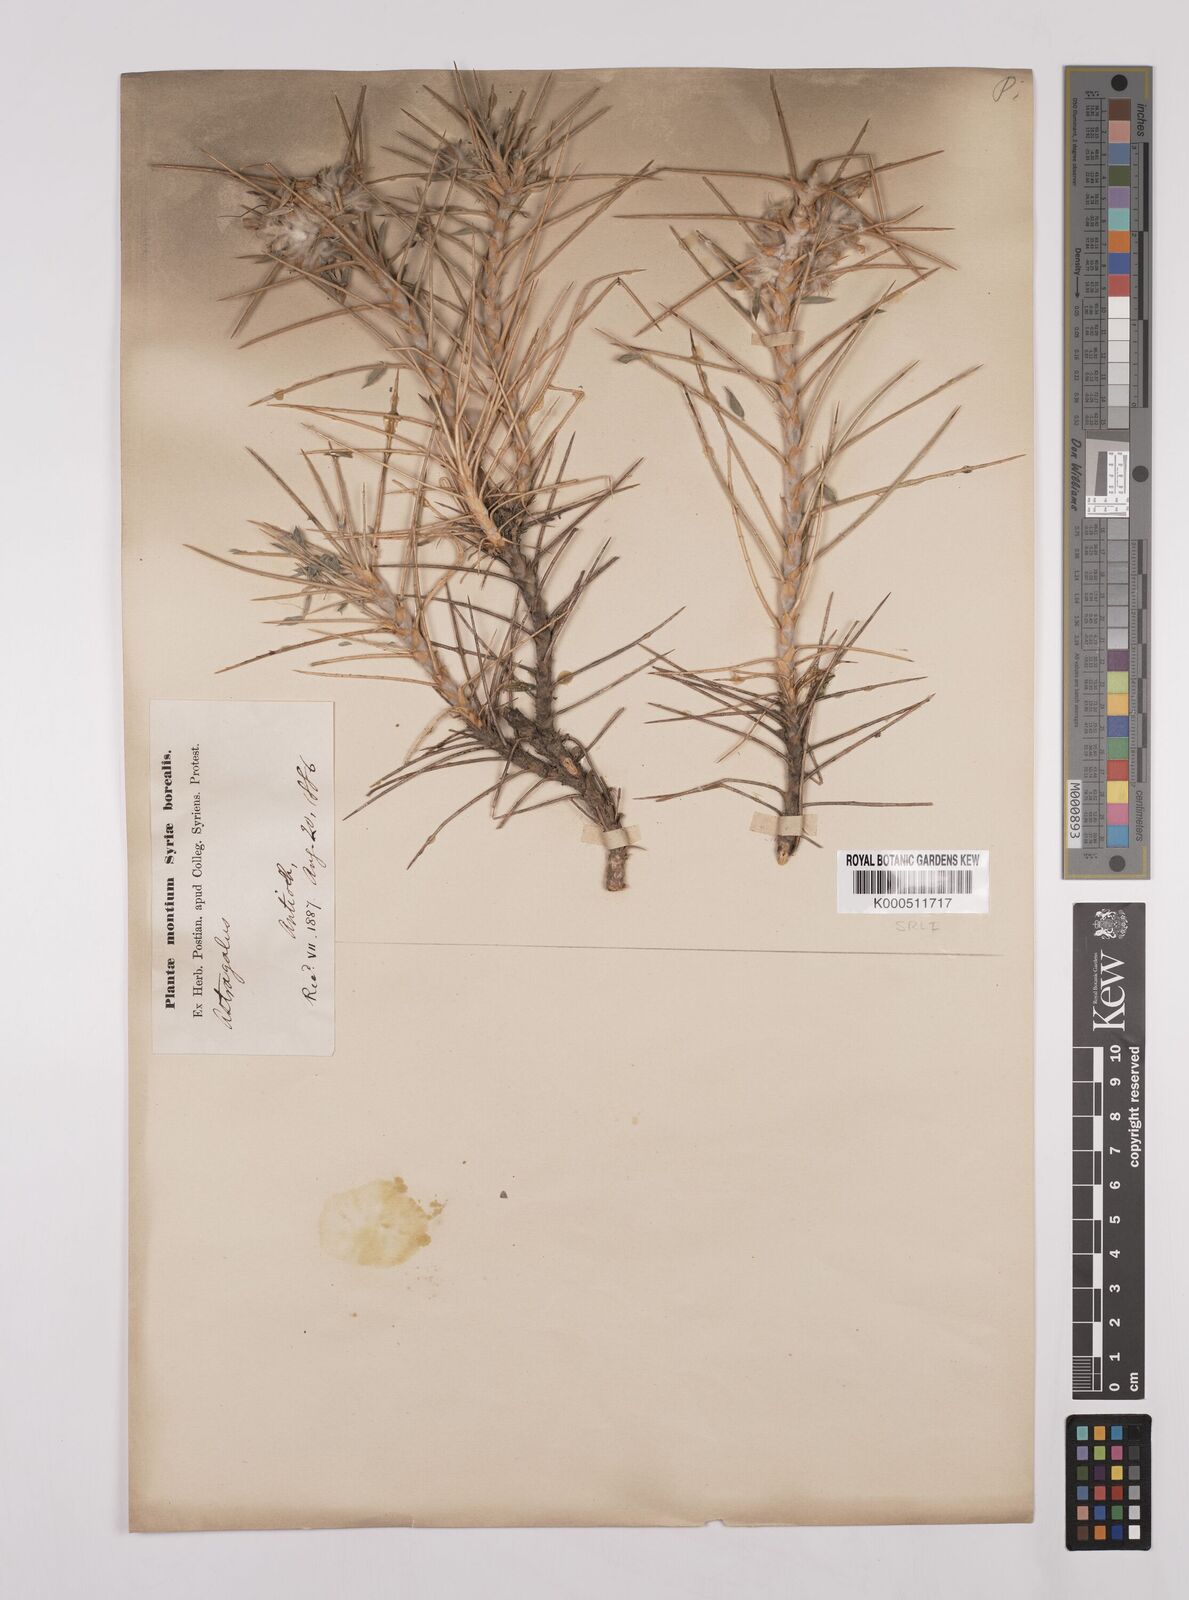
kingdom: Plantae
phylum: Tracheophyta
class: Magnoliopsida
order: Fabales
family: Fabaceae
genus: Astragalus
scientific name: Astragalus floccosus
